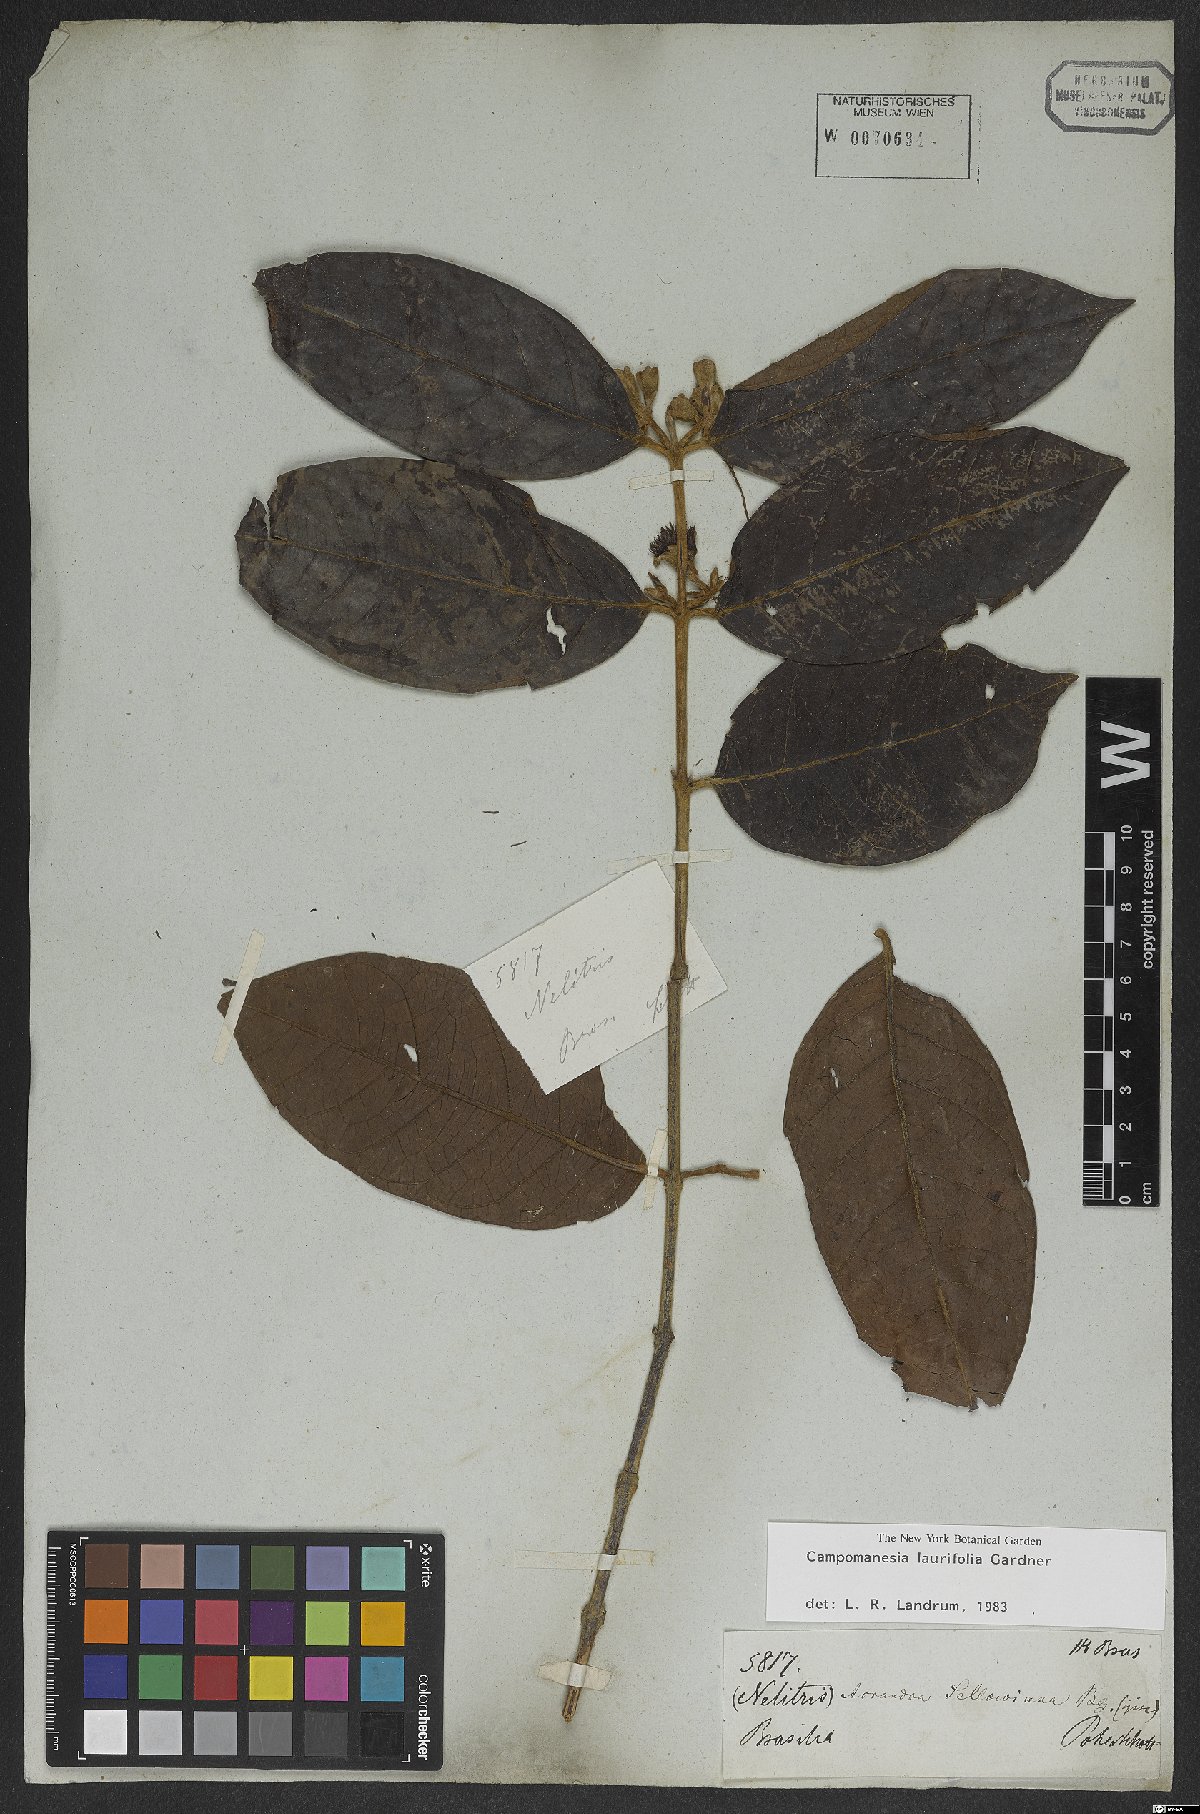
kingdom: Plantae
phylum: Tracheophyta
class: Magnoliopsida
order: Myrtales
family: Myrtaceae
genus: Campomanesia
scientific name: Campomanesia laurifolia
